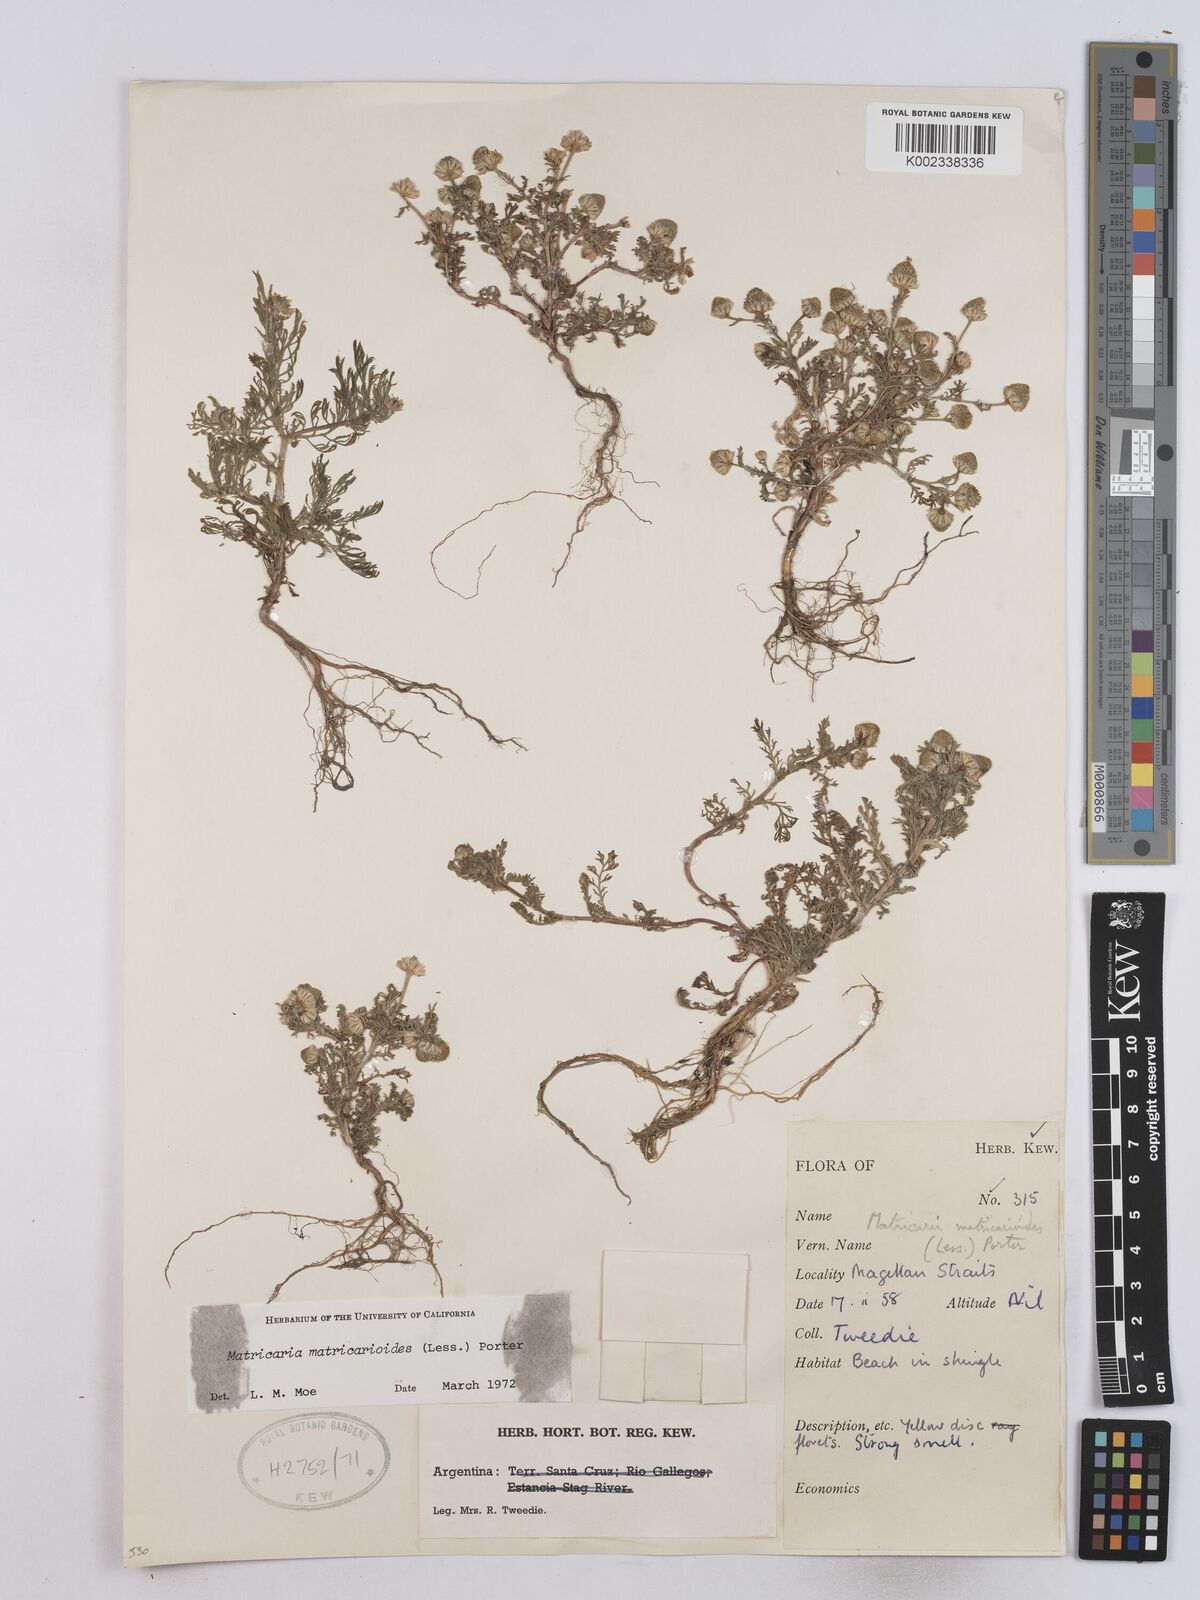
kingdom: Plantae
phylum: Tracheophyta
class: Magnoliopsida
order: Asterales
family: Asteraceae
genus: Matricaria
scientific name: Matricaria discoidea
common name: Disc mayweed
